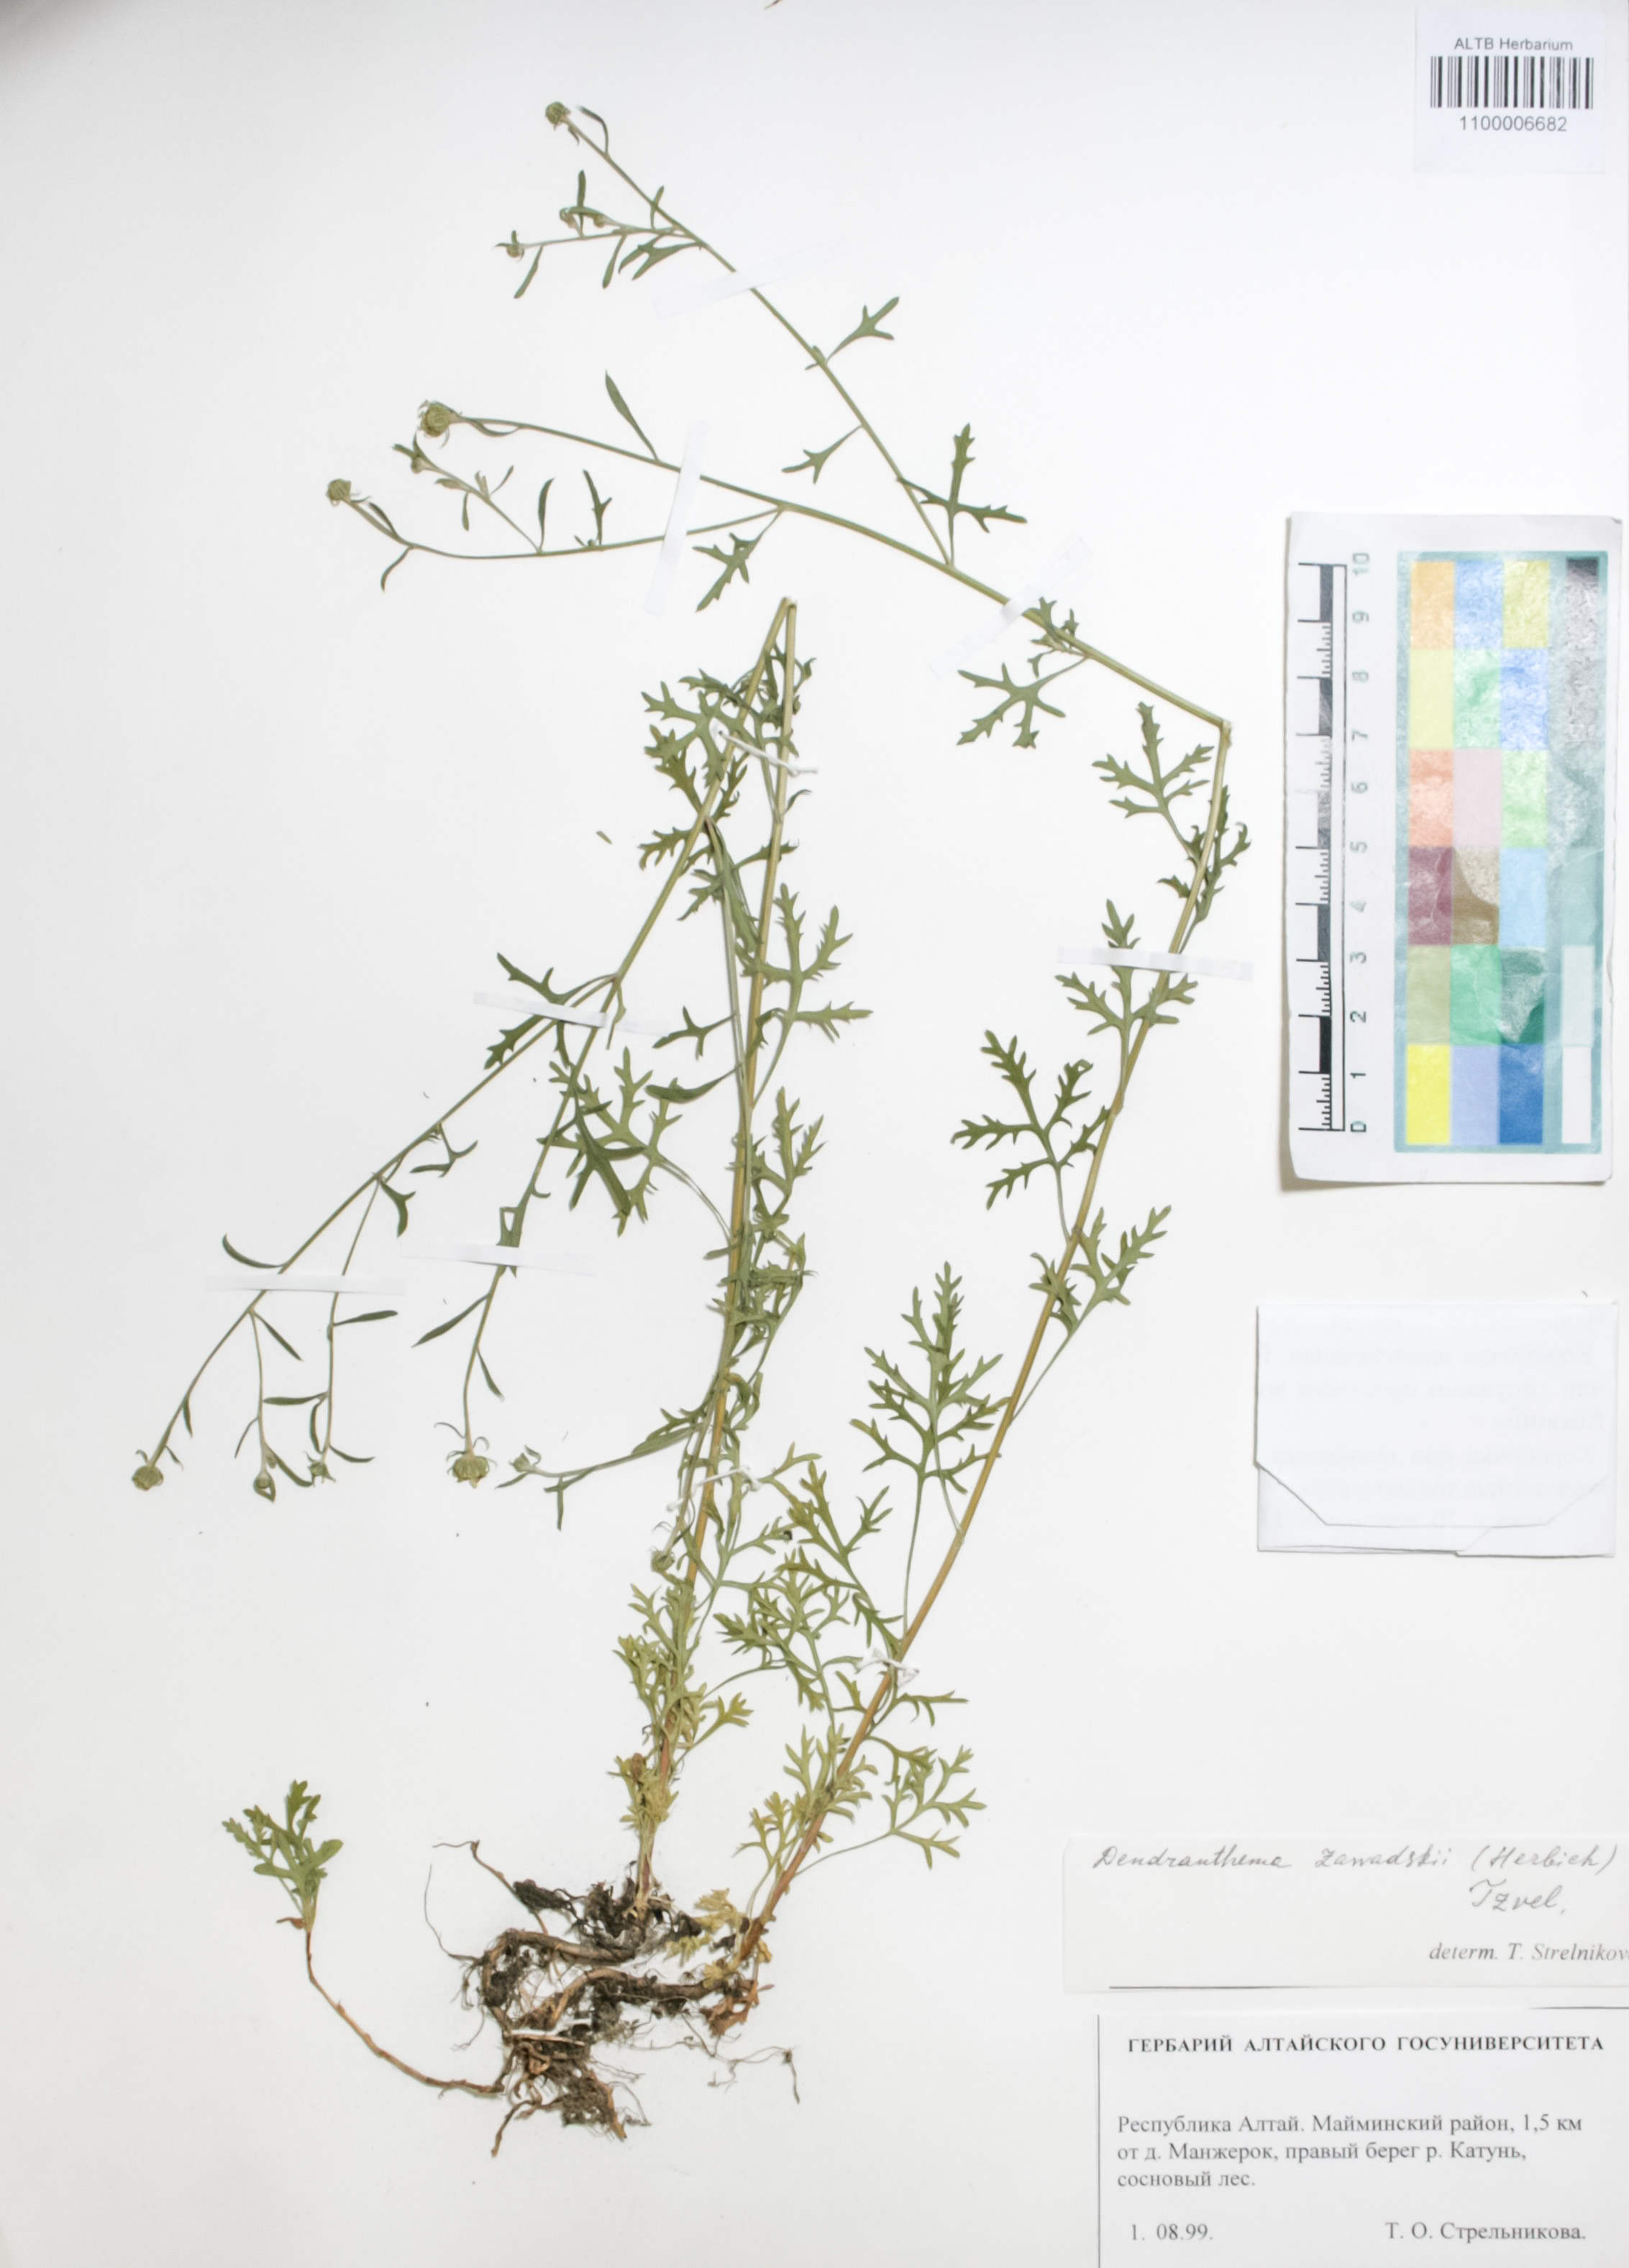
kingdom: Plantae
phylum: Tracheophyta
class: Magnoliopsida
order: Asterales
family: Asteraceae
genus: Chrysanthemum
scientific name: Chrysanthemum zawadzkii
